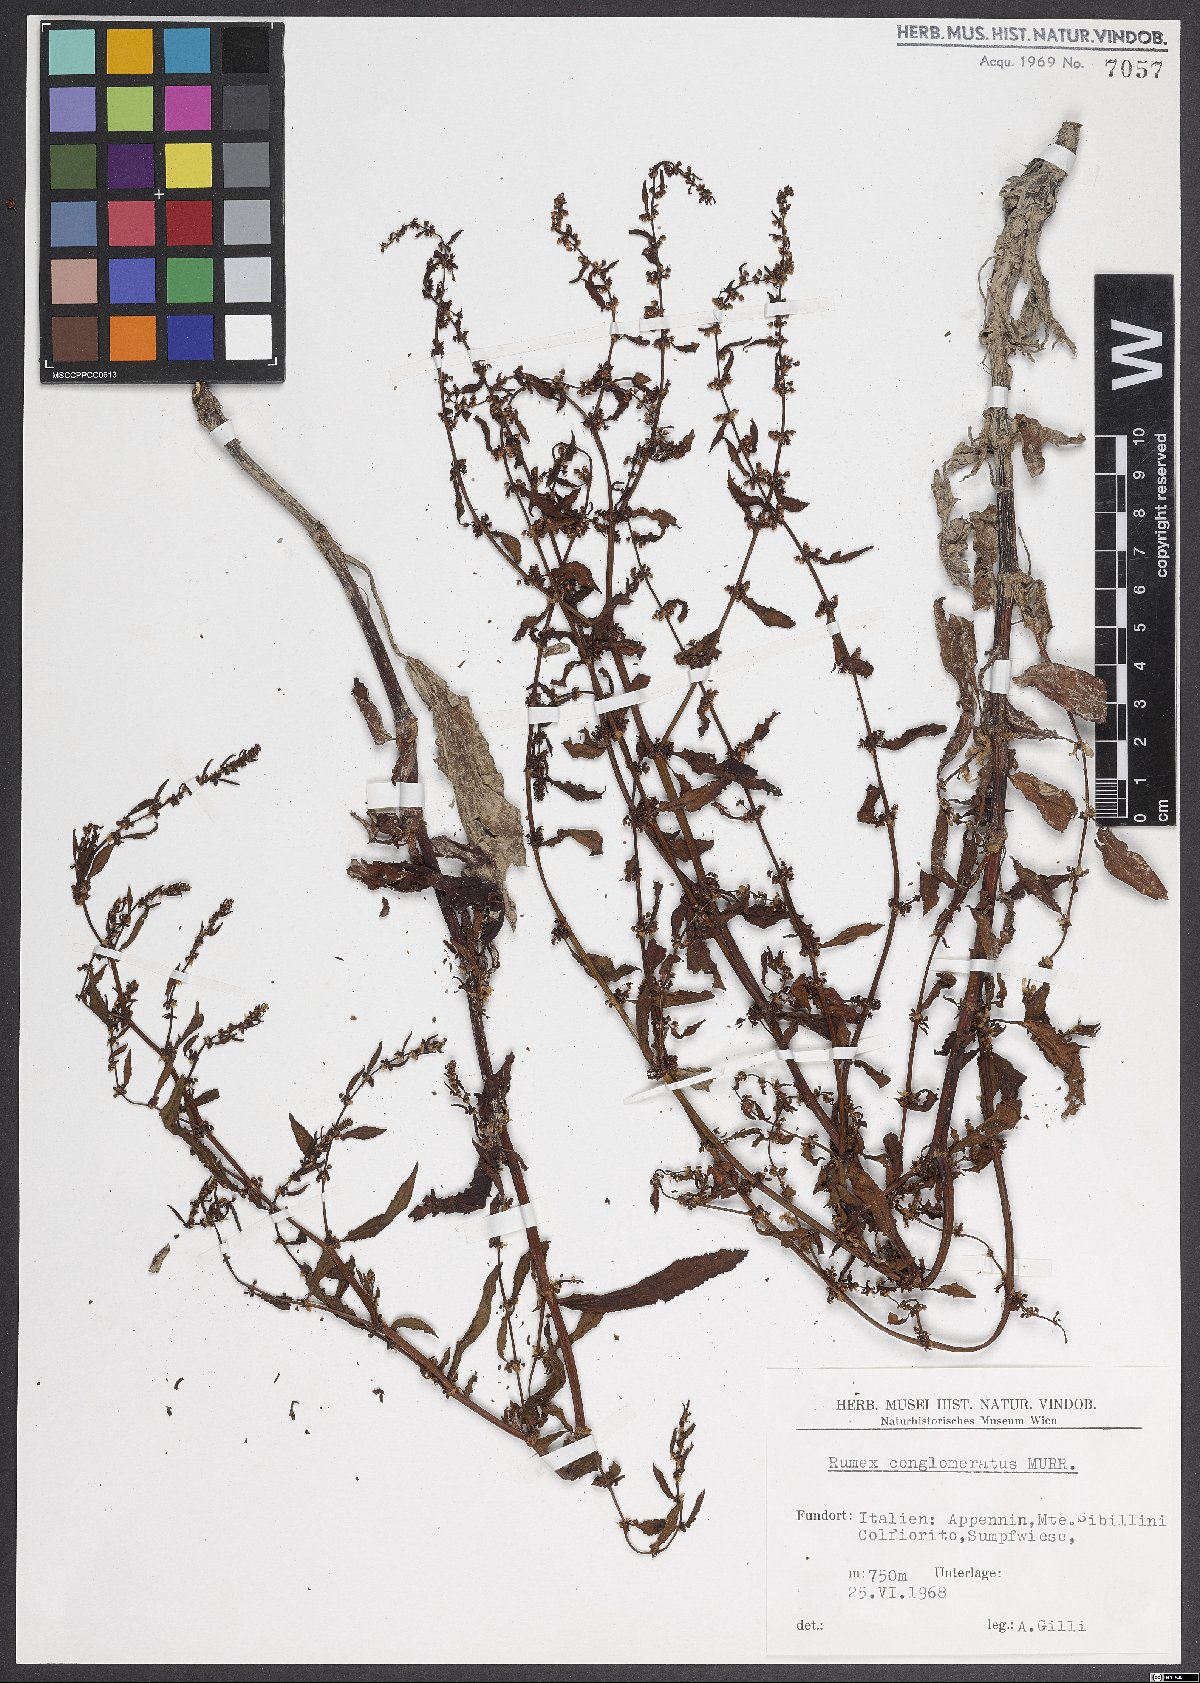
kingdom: Plantae
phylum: Tracheophyta
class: Magnoliopsida
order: Caryophyllales
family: Polygonaceae
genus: Rumex
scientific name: Rumex conglomeratus
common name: Clustered dock
